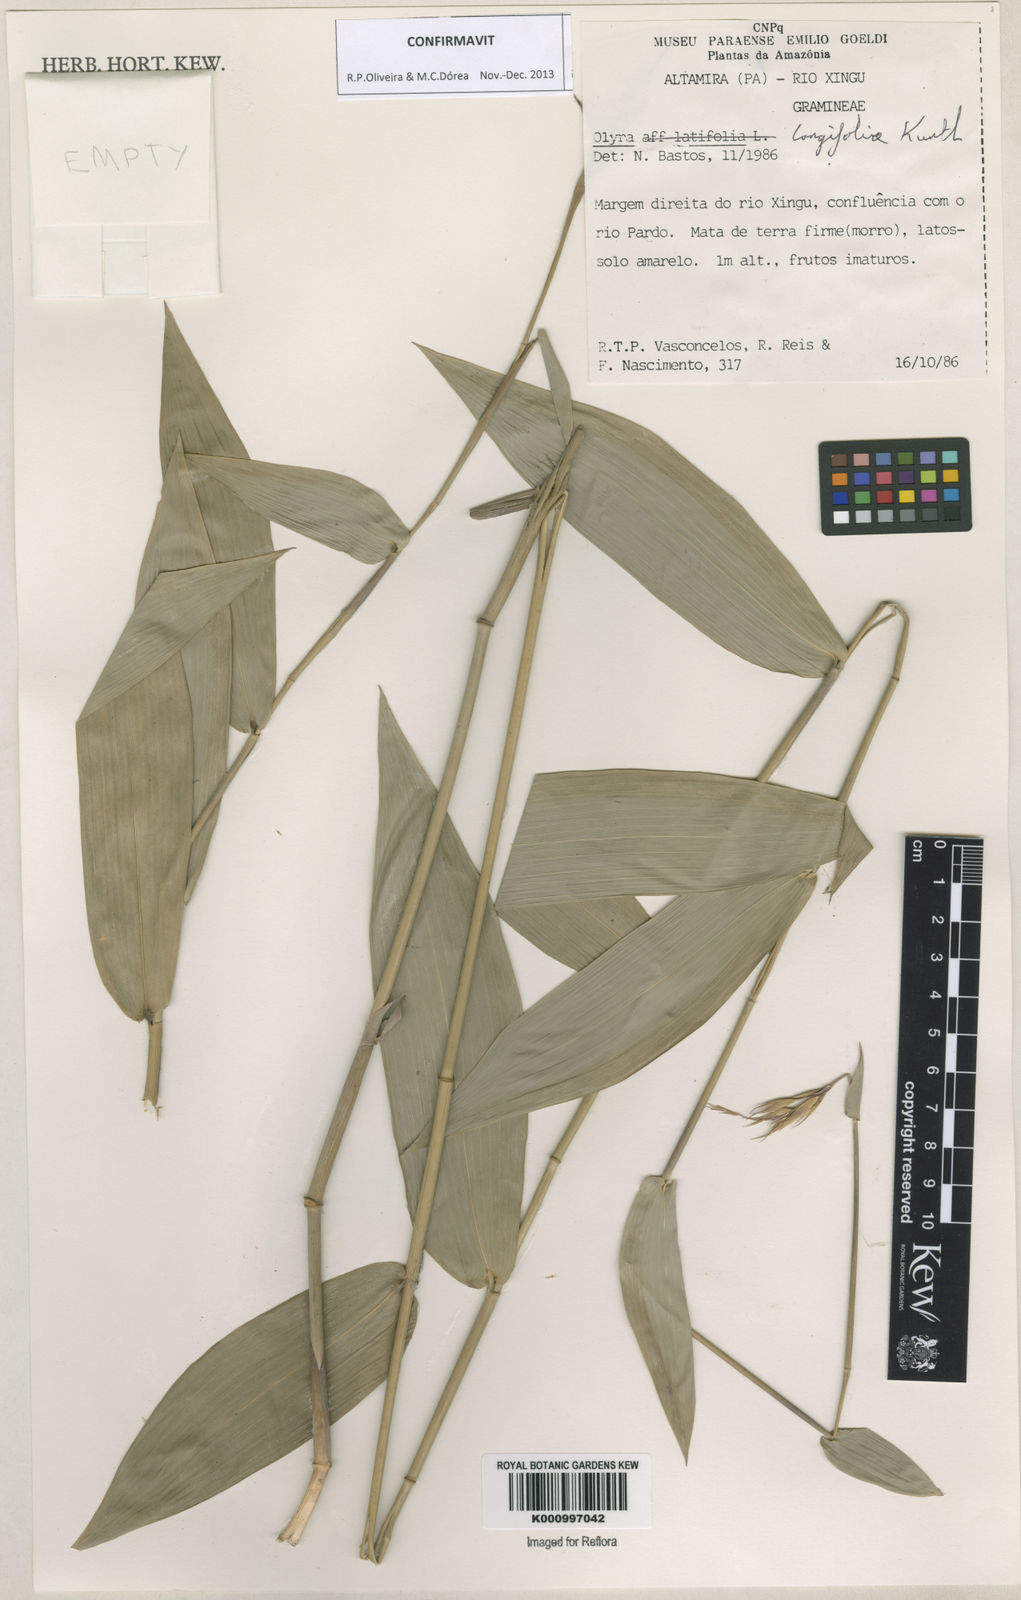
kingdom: Plantae
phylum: Tracheophyta
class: Liliopsida
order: Poales
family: Poaceae
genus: Olyra
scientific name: Olyra longifolia
